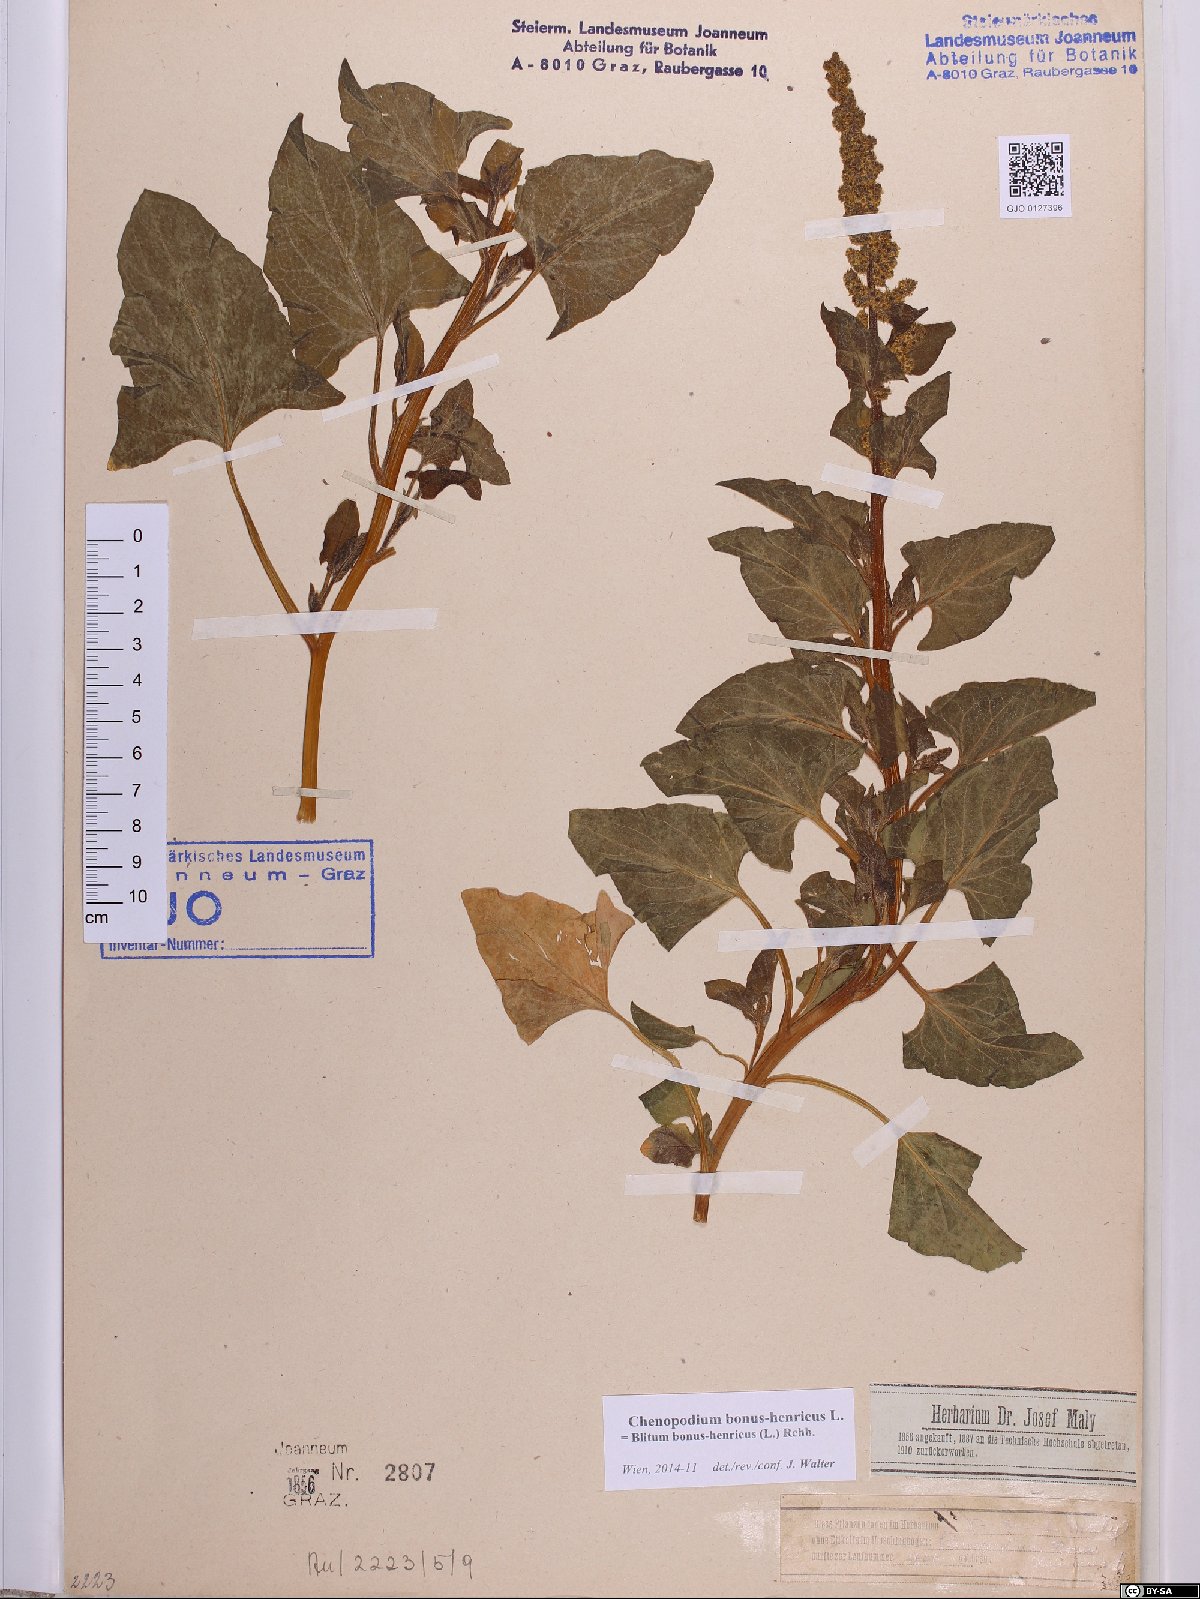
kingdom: Plantae
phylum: Tracheophyta
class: Magnoliopsida
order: Caryophyllales
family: Amaranthaceae
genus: Blitum
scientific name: Blitum bonus-henricus
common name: Good king henry
